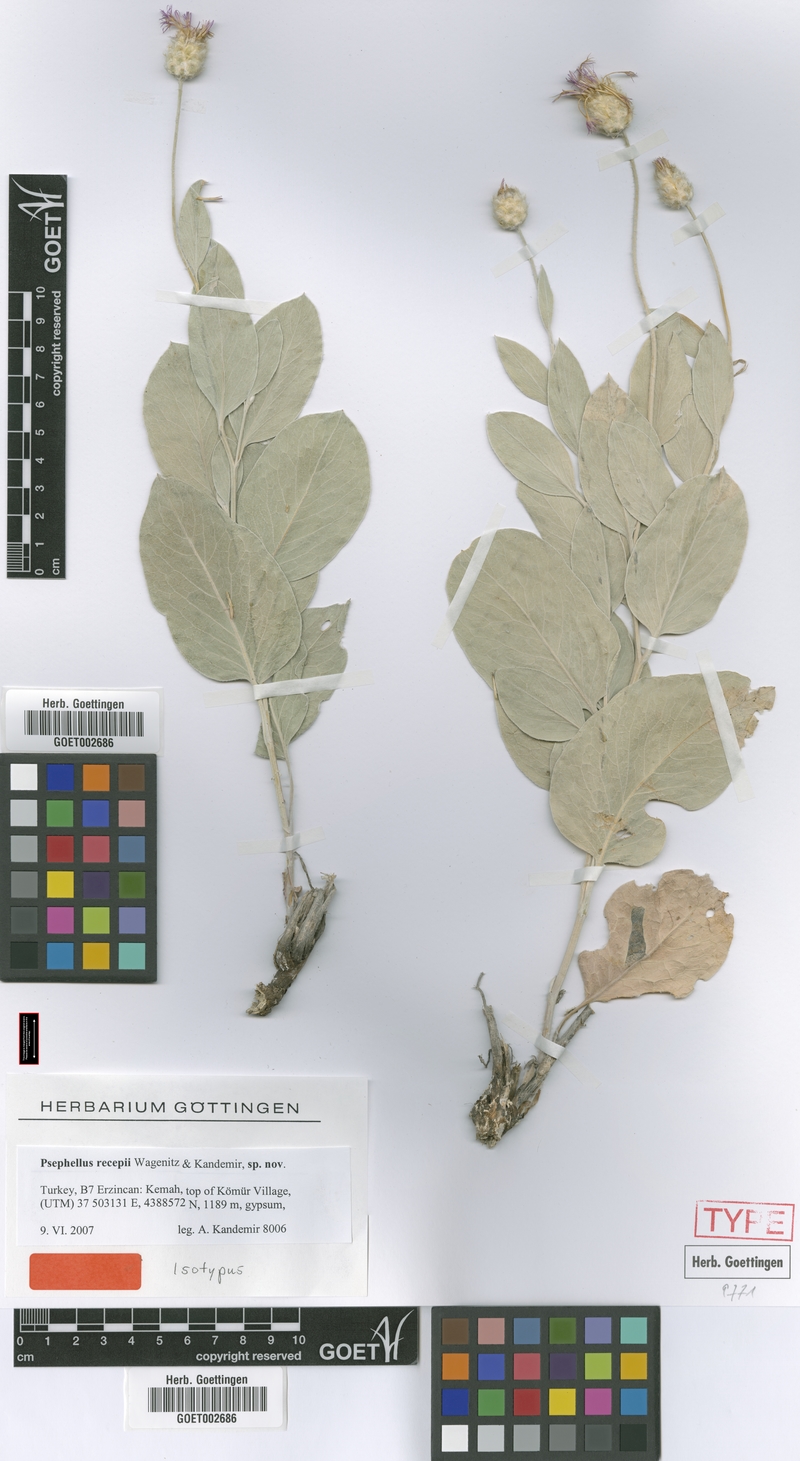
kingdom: Plantae
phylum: Tracheophyta
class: Magnoliopsida
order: Asterales
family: Asteraceae
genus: Psephellus
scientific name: Psephellus recepii
